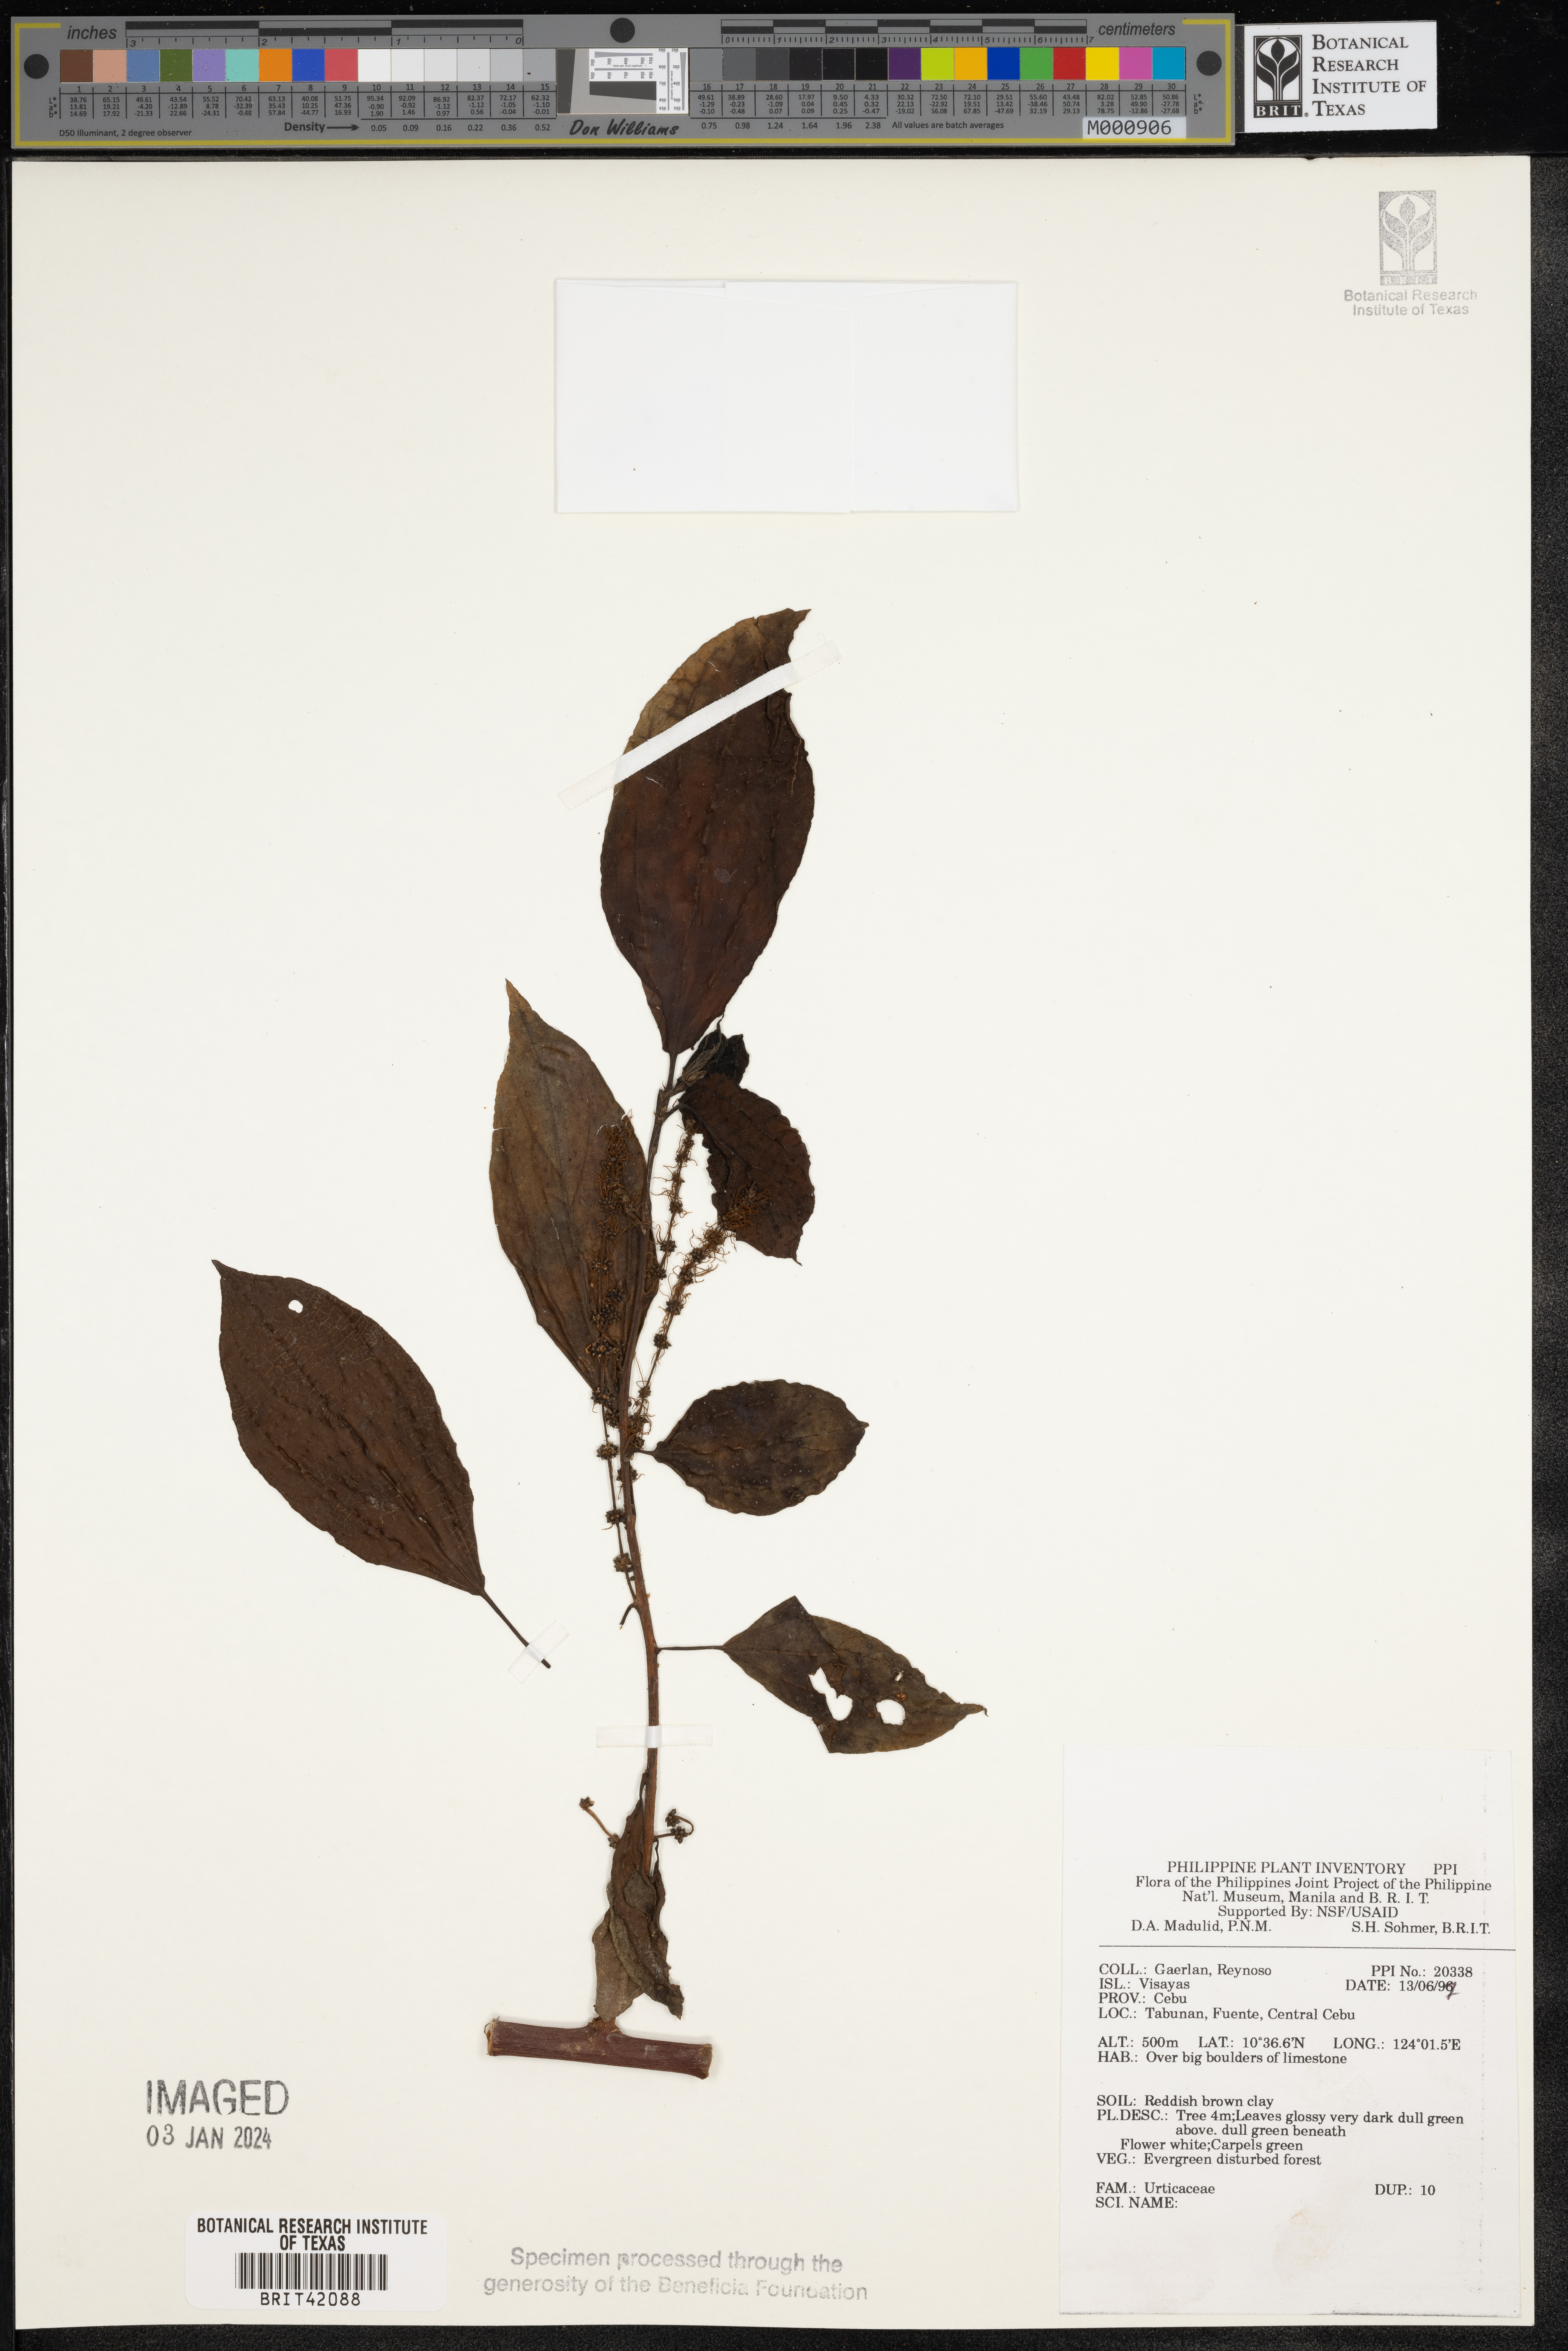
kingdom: Plantae
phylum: Tracheophyta
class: Magnoliopsida
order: Rosales
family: Urticaceae
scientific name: Urticaceae
